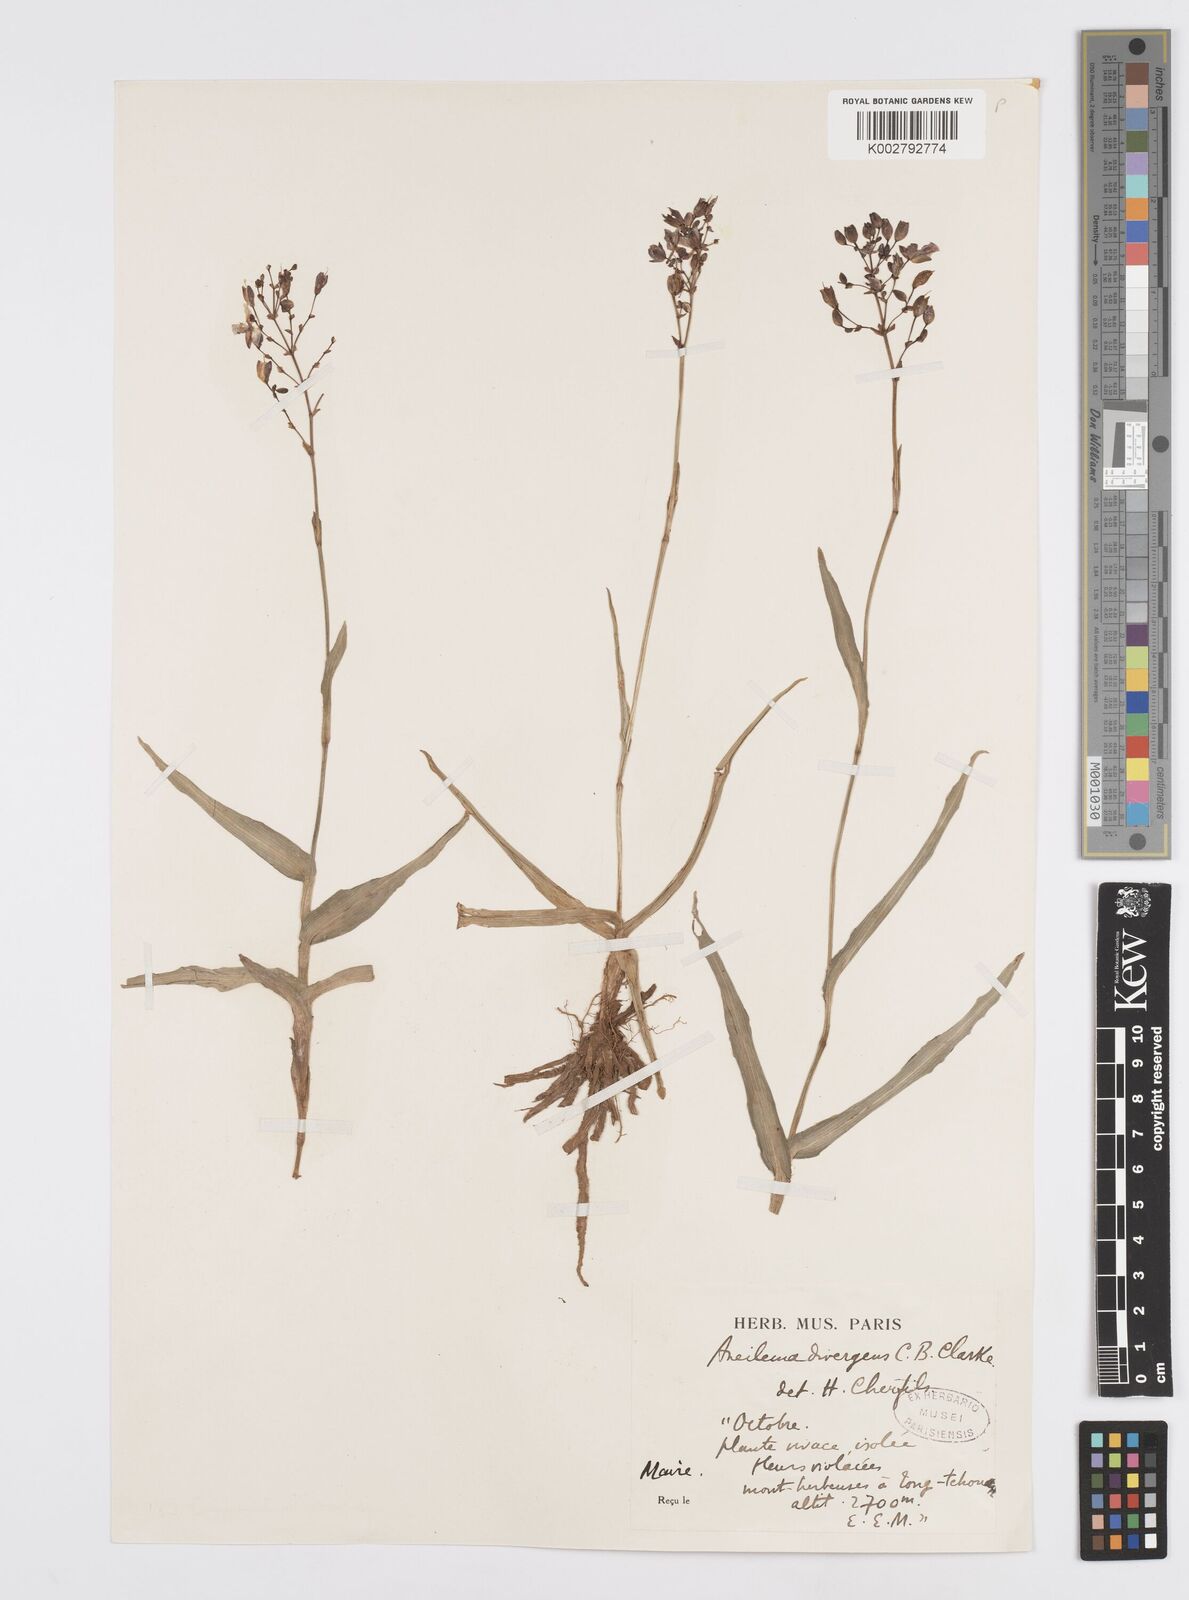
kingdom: Plantae
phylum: Tracheophyta
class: Liliopsida
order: Commelinales
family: Commelinaceae
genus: Murdannia
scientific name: Murdannia divergens
